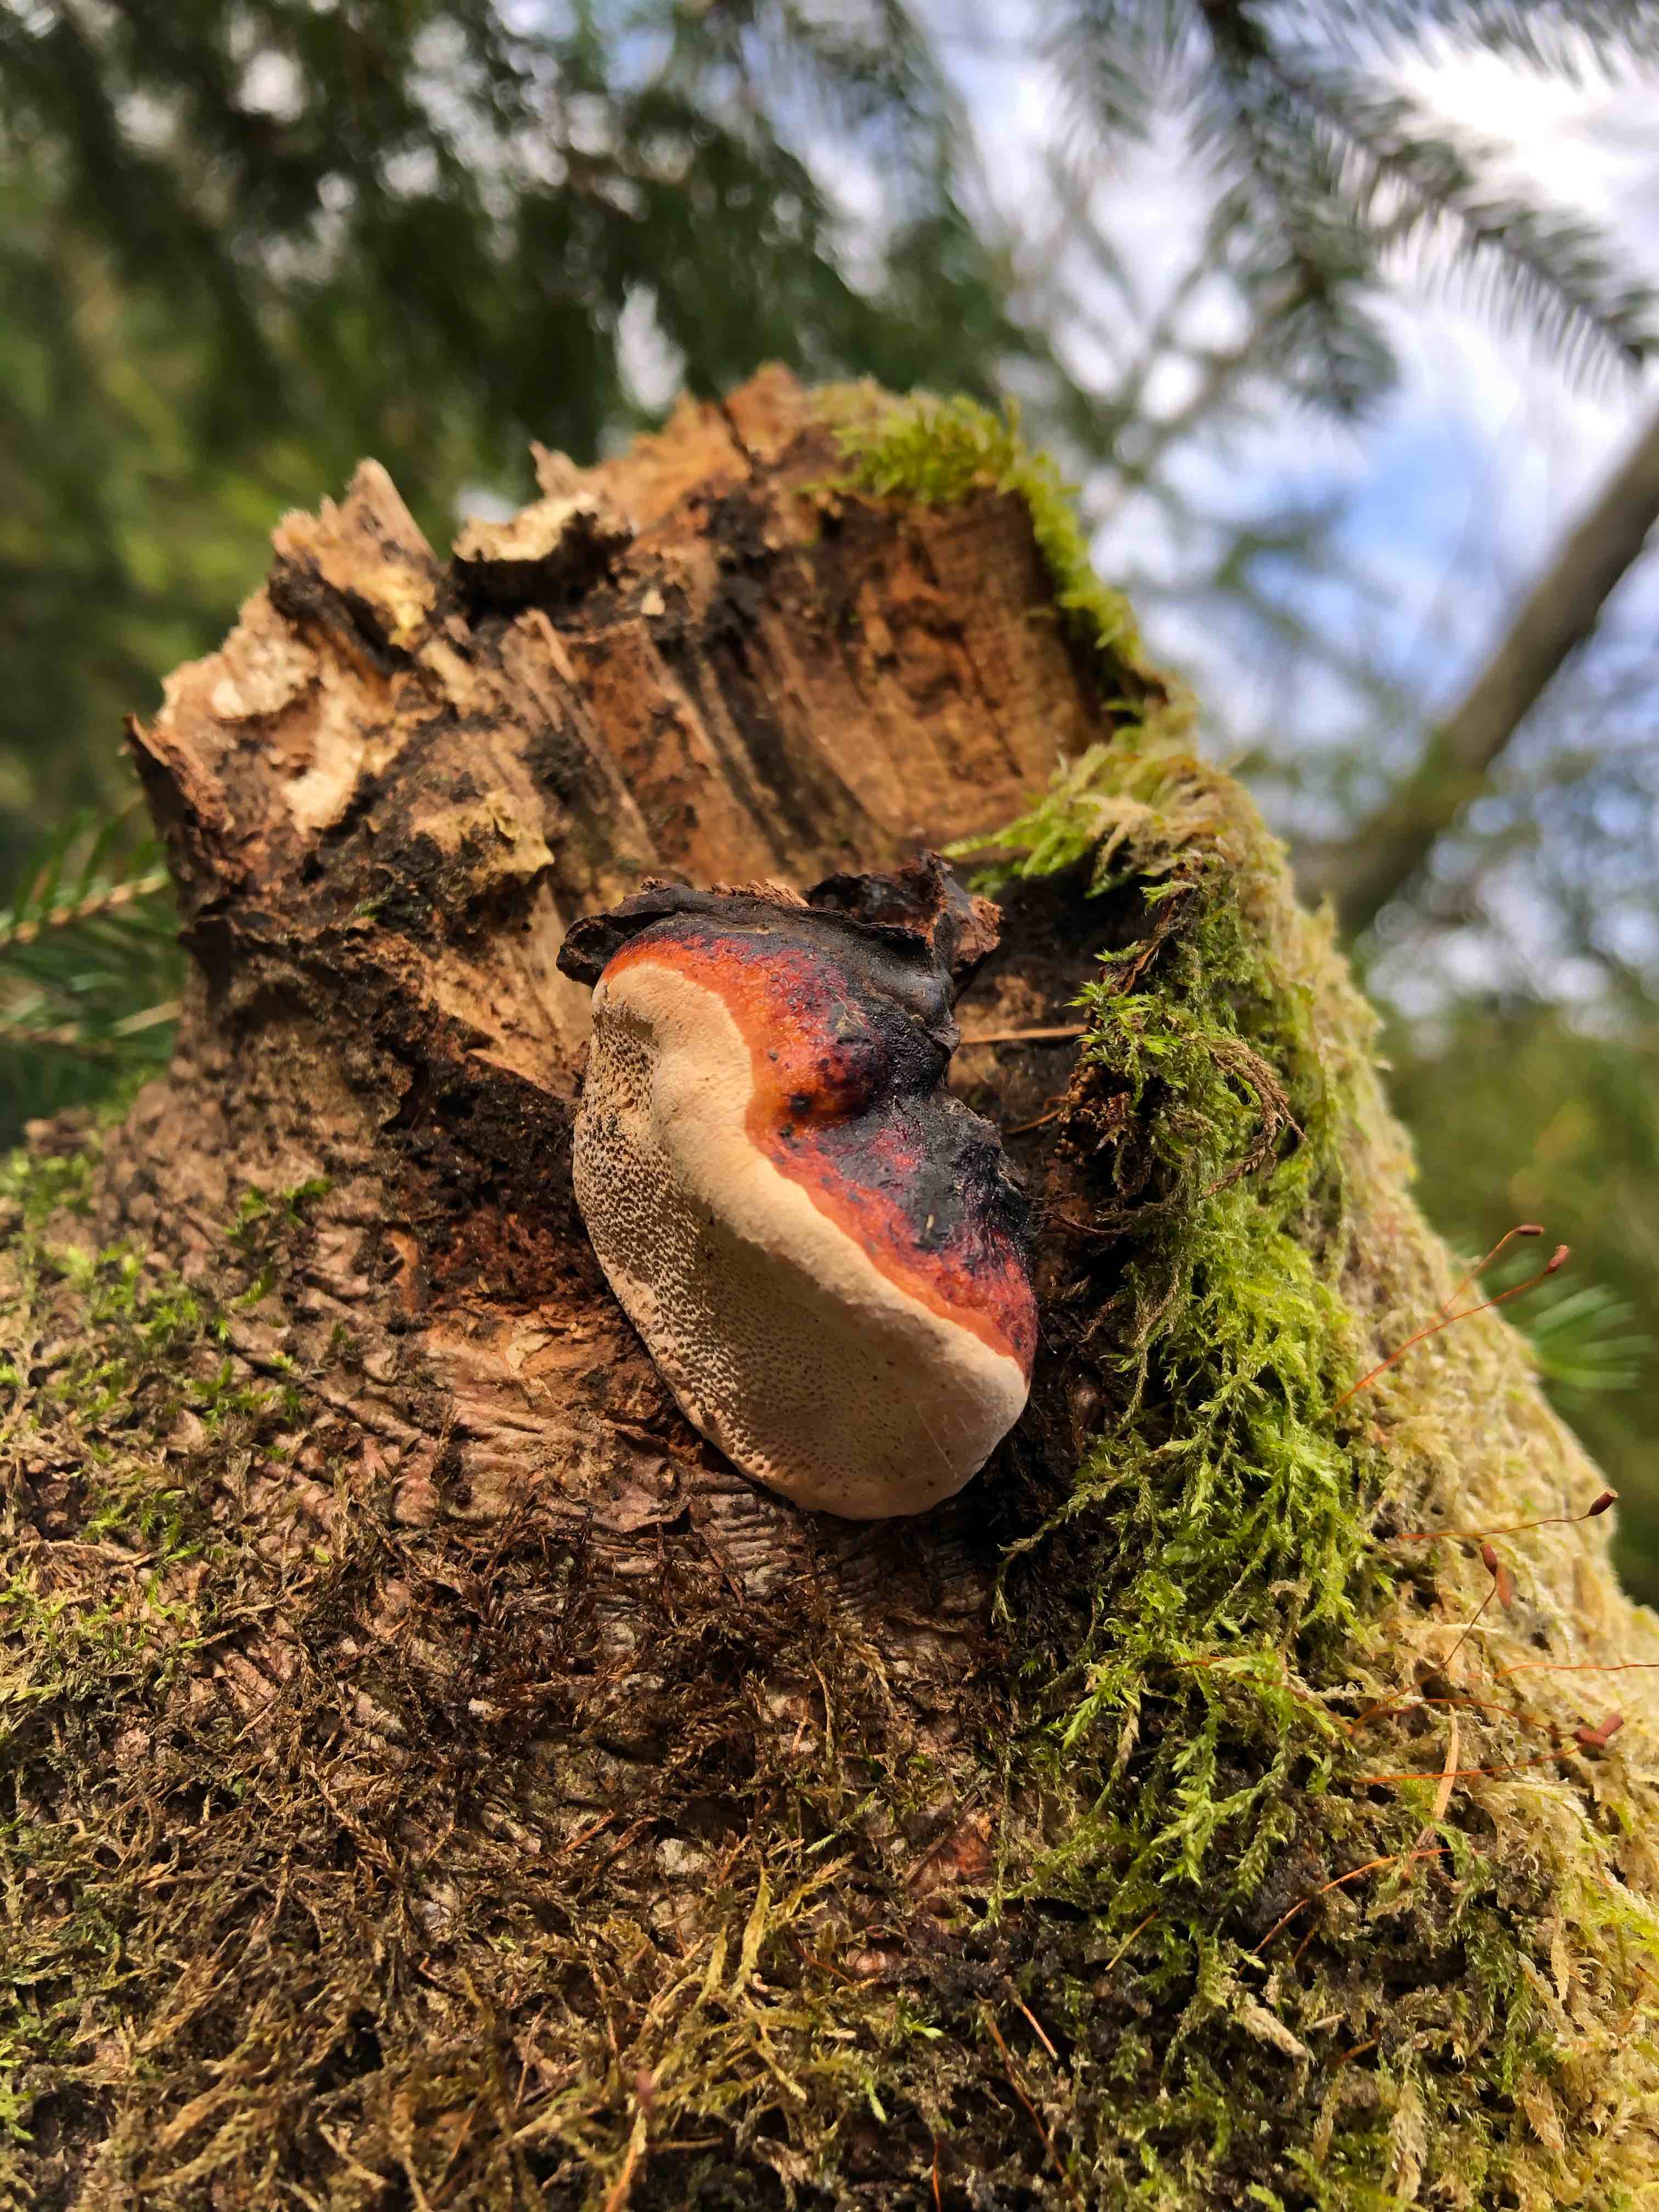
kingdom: Fungi
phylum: Basidiomycota
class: Agaricomycetes
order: Polyporales
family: Fomitopsidaceae
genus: Fomitopsis
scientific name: Fomitopsis pinicola
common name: randbæltet hovporesvamp
